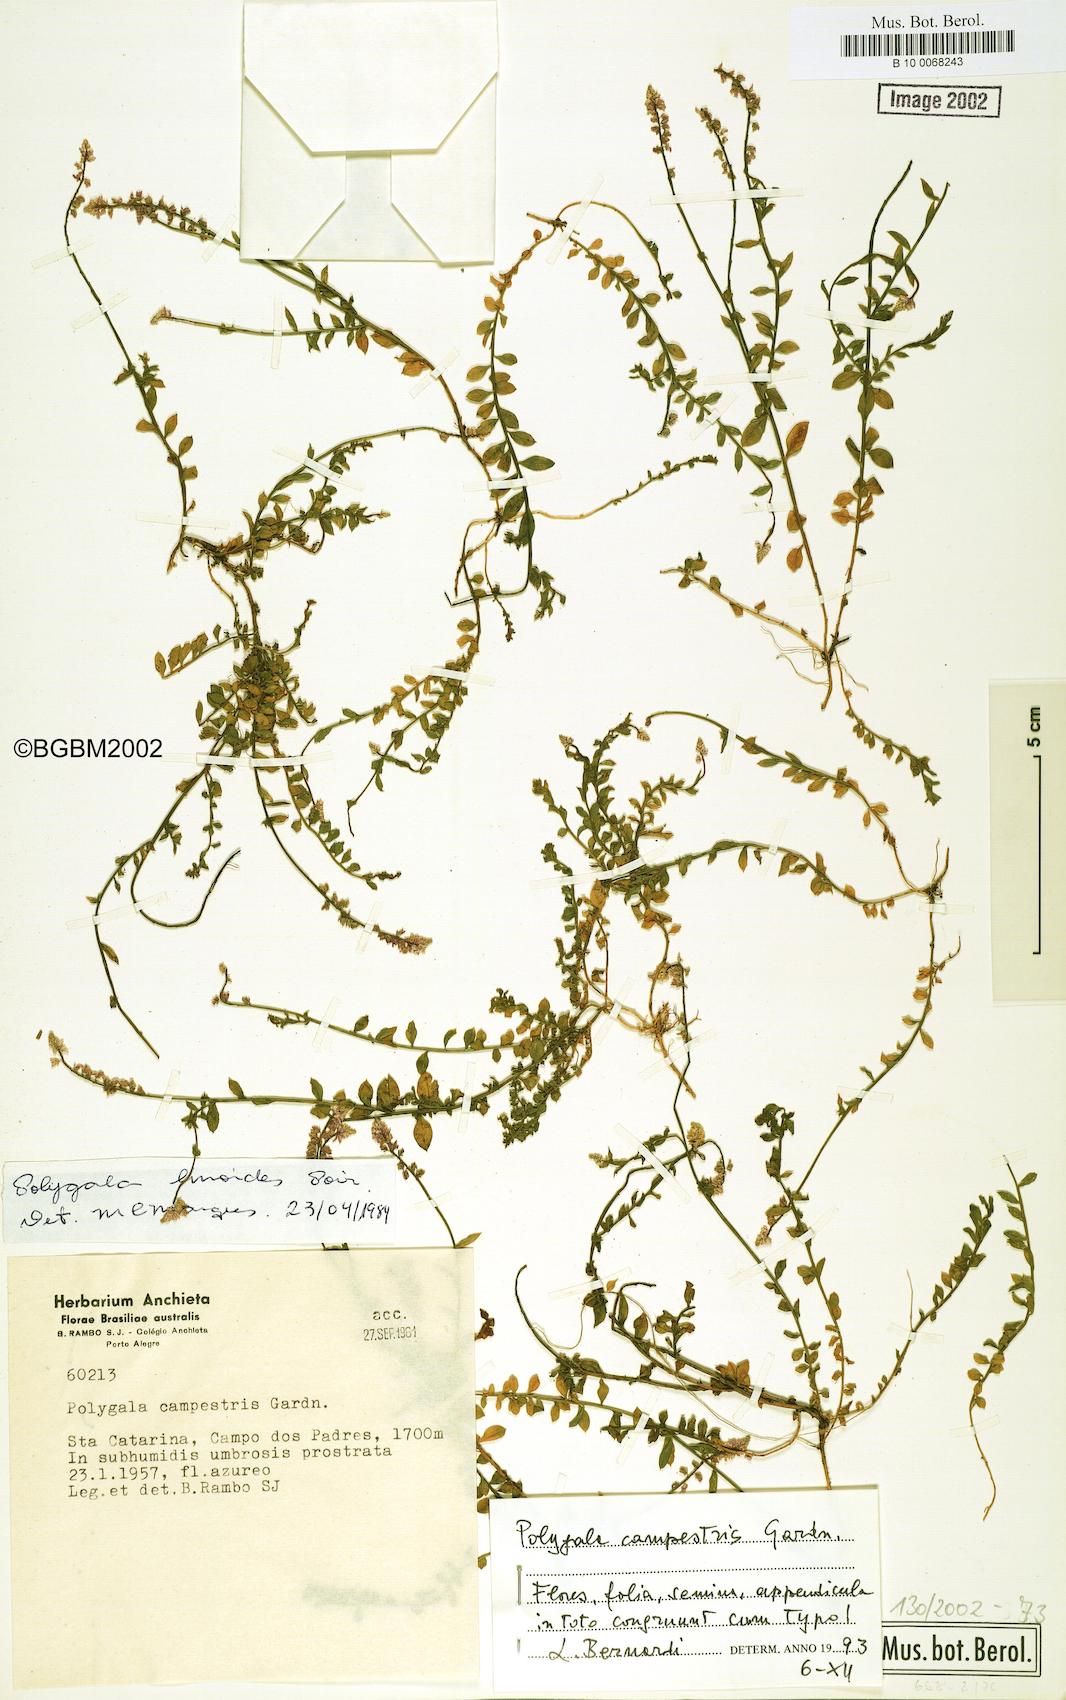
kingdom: Plantae
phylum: Tracheophyta
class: Magnoliopsida
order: Fabales
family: Polygalaceae
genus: Polygala
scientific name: Polygala campestris
